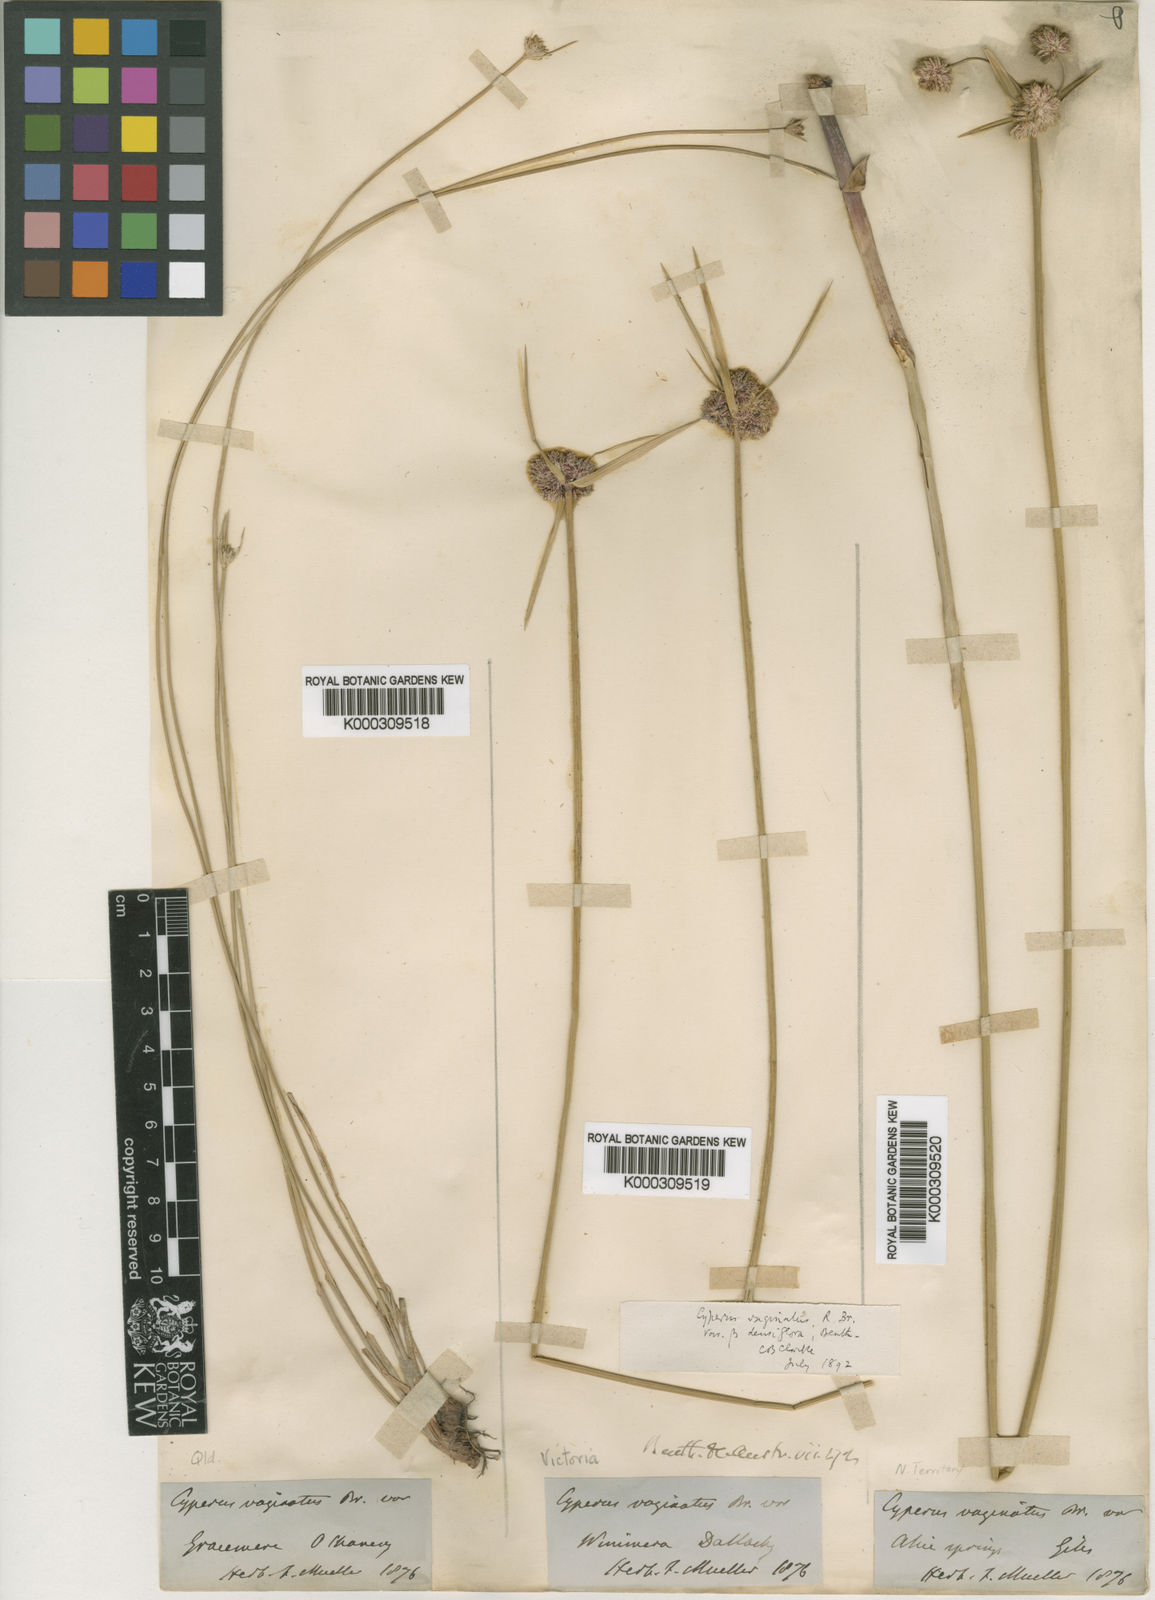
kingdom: Plantae
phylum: Tracheophyta
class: Liliopsida
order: Poales
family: Cyperaceae
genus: Cyperus
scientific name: Cyperus vaginatus
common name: Stiff-leaved flat-sedge
